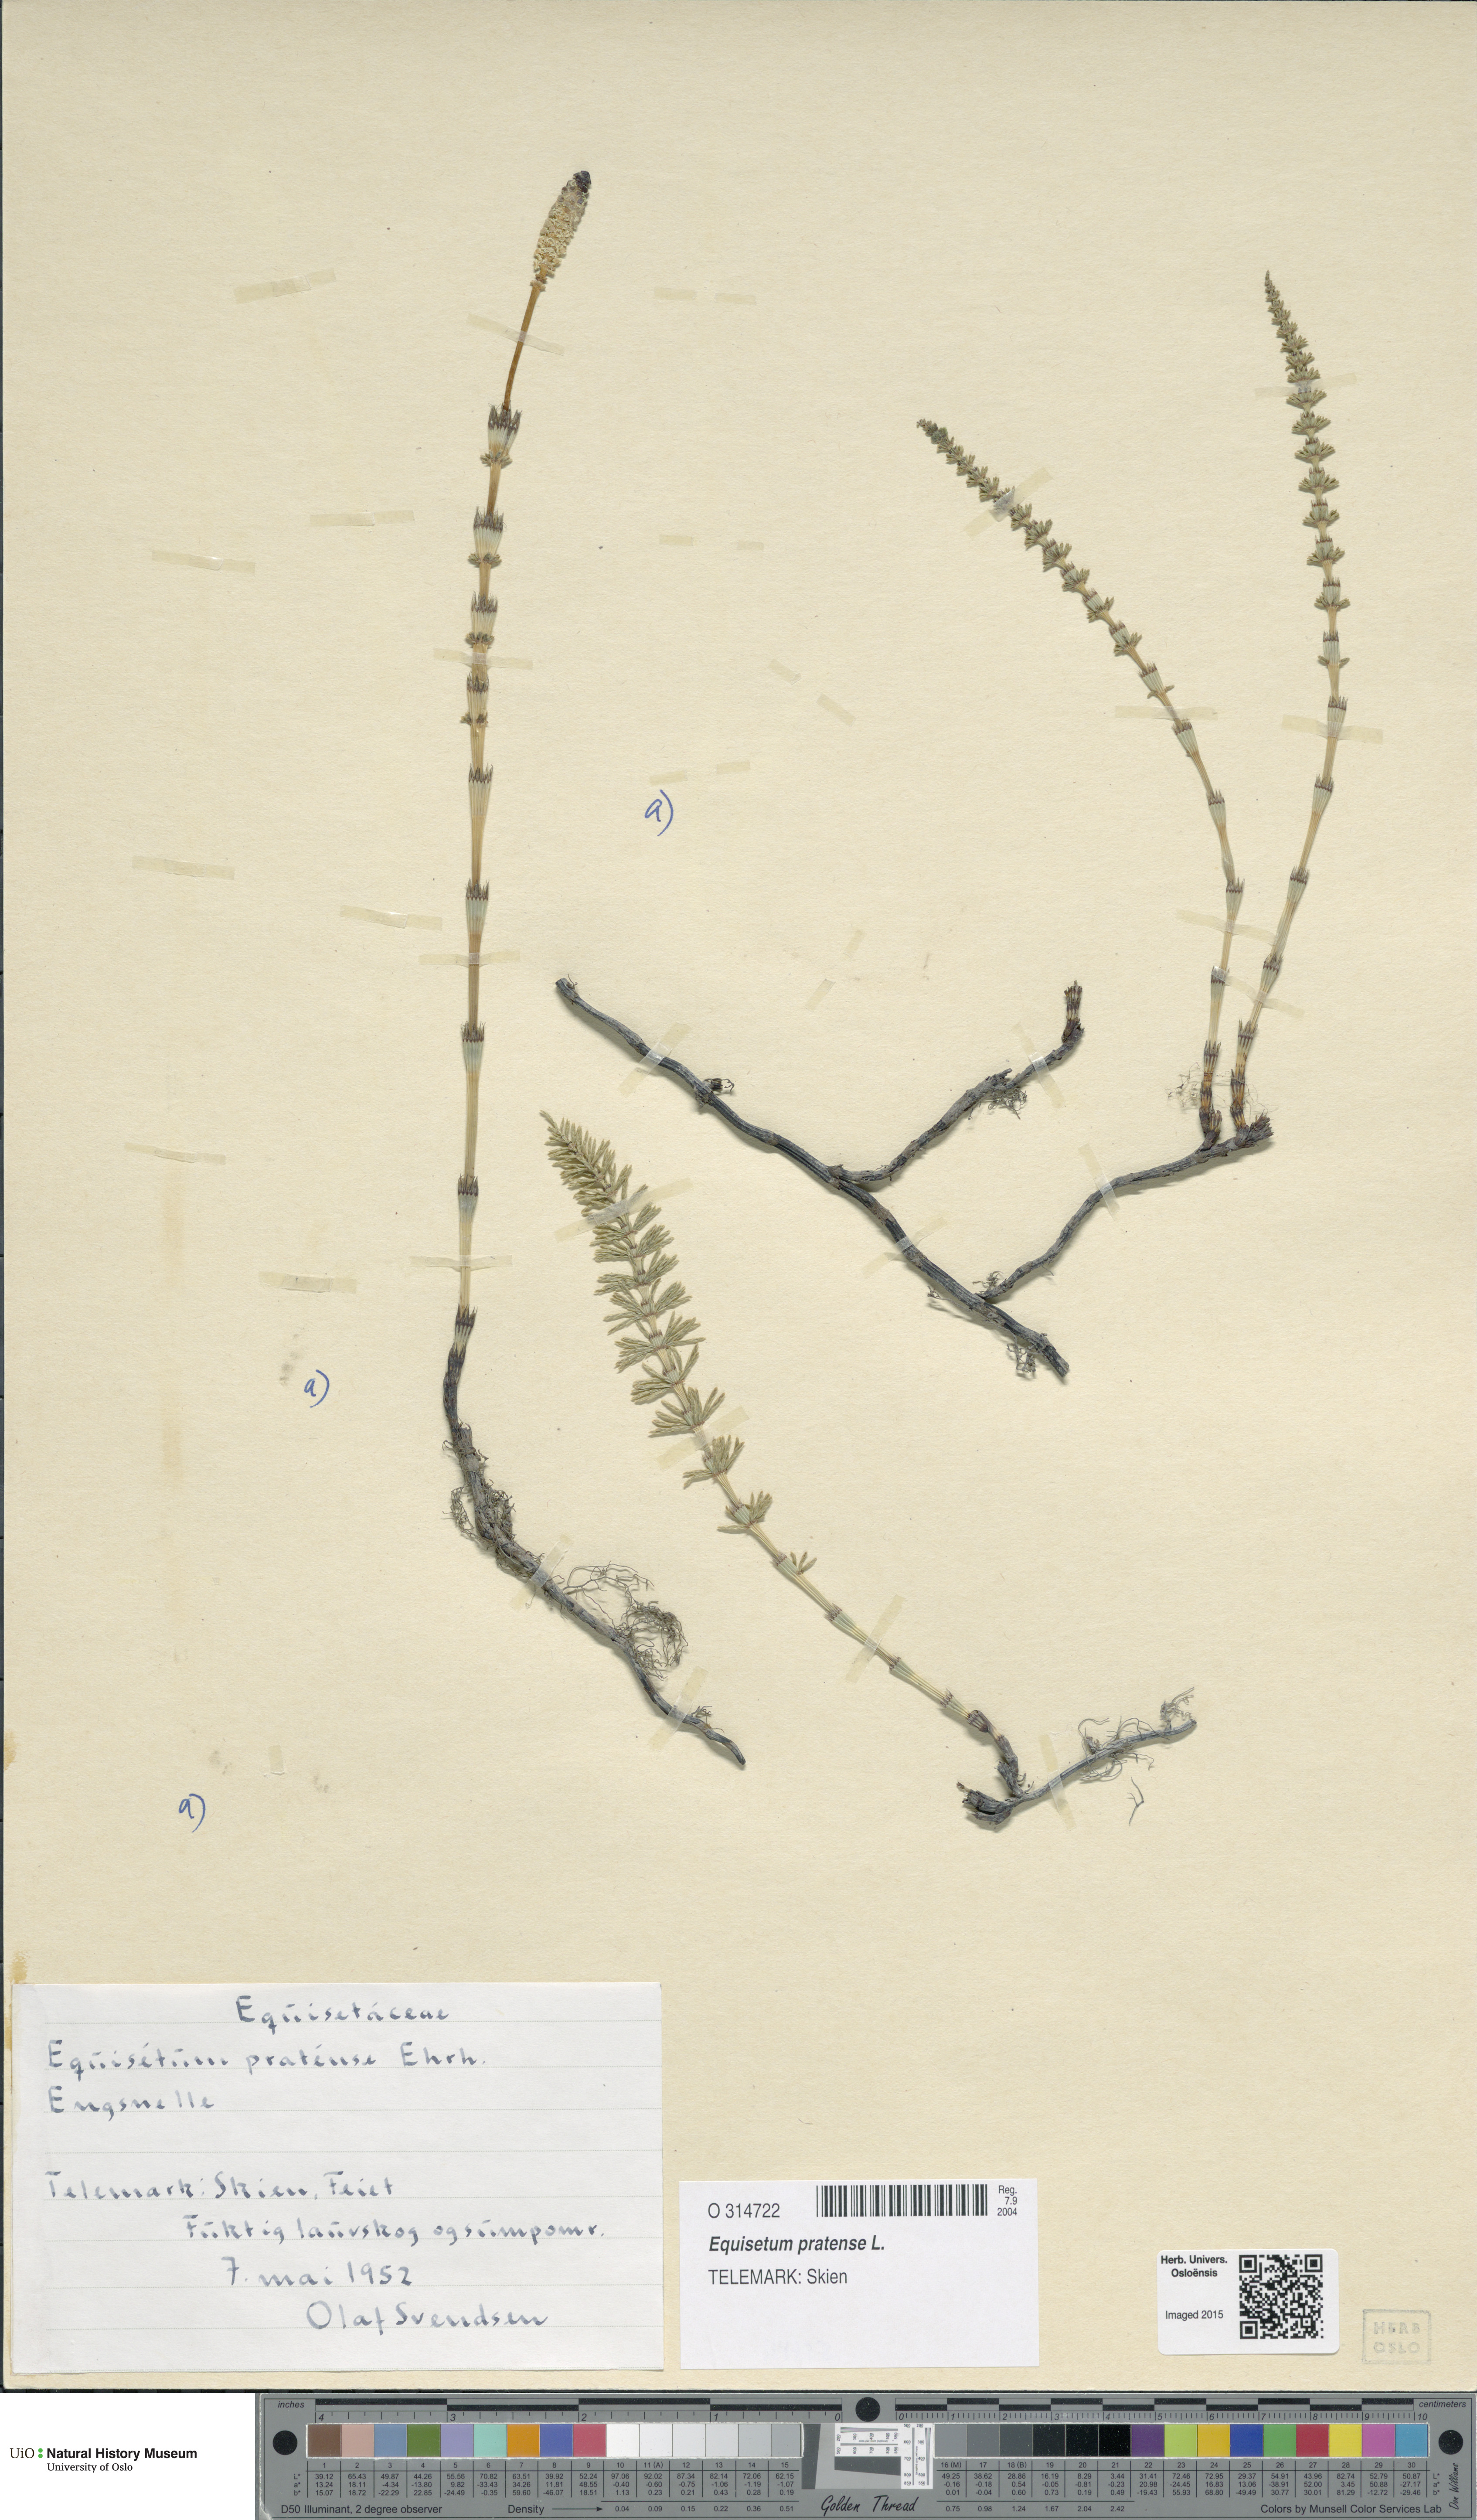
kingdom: Plantae
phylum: Tracheophyta
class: Polypodiopsida
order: Equisetales
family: Equisetaceae
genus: Equisetum
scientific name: Equisetum pratense
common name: Meadow horsetail
